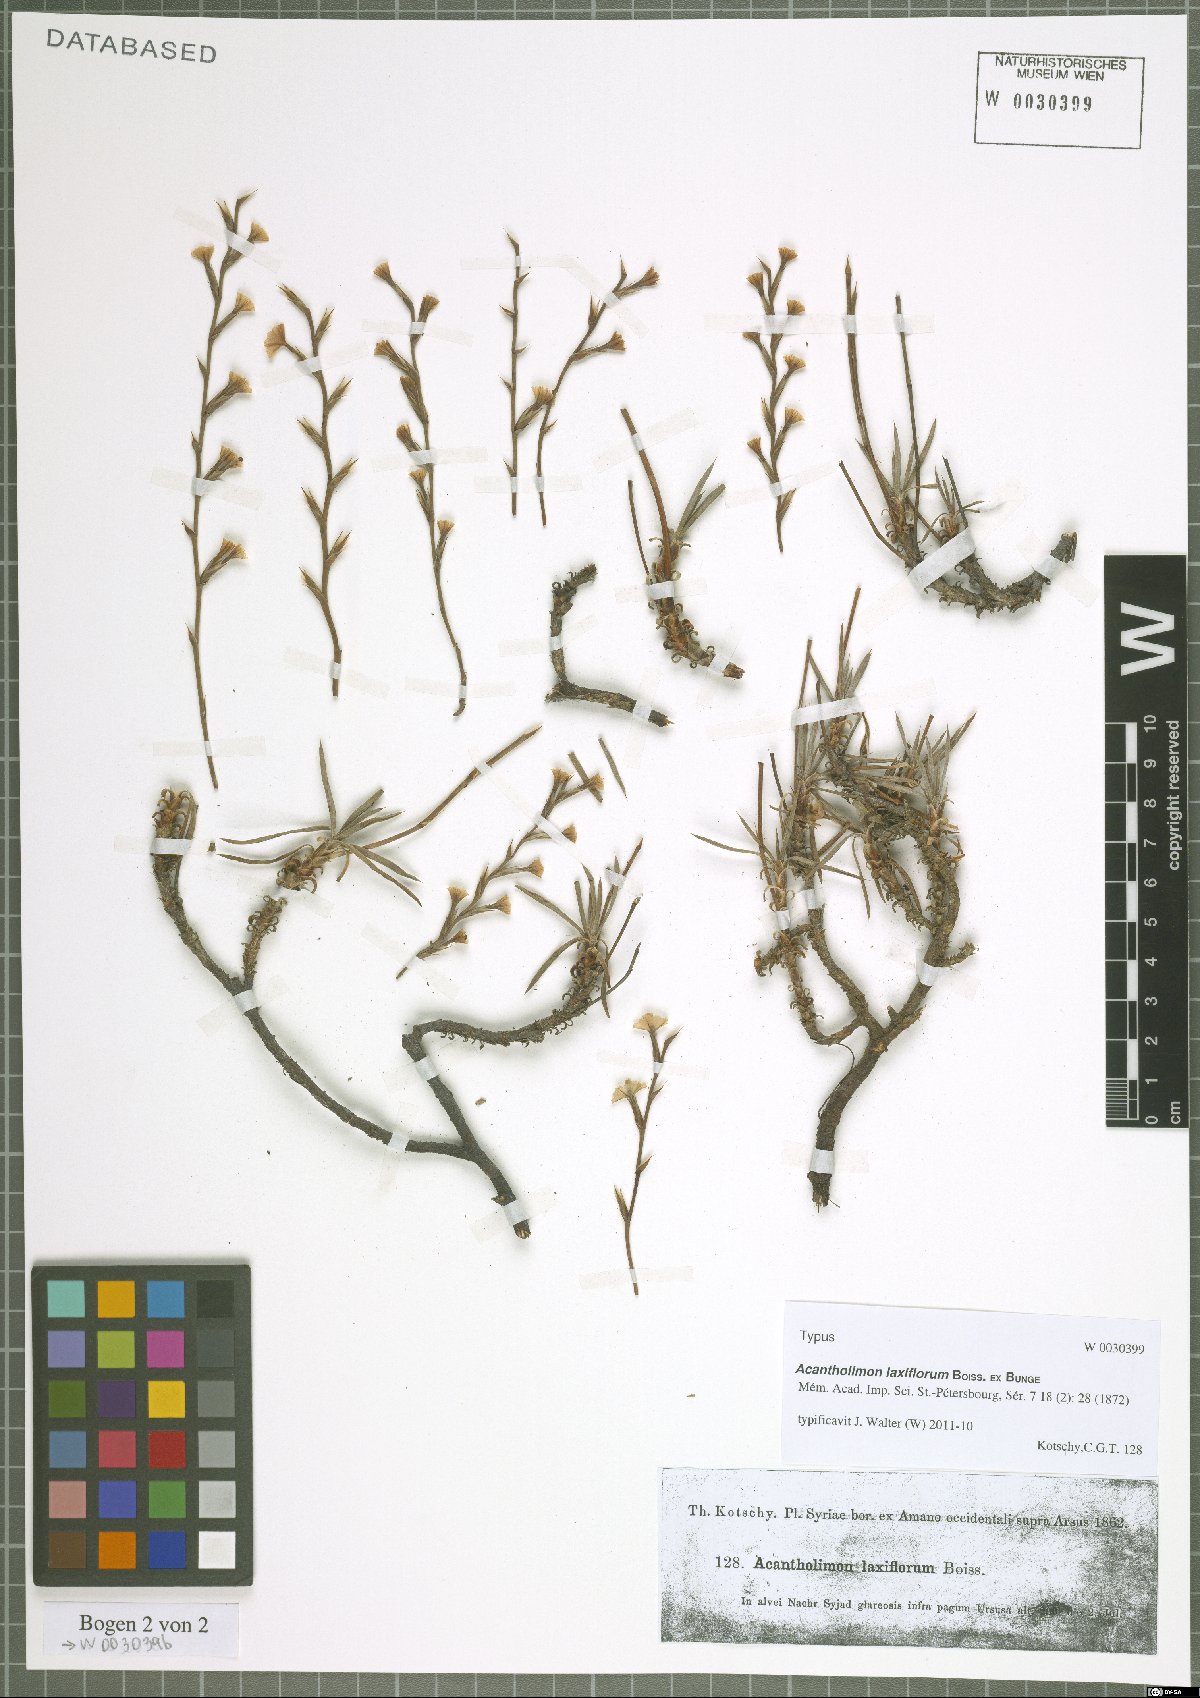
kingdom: Plantae
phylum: Tracheophyta
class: Magnoliopsida
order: Caryophyllales
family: Plumbaginaceae
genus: Acantholimon
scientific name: Acantholimon laxiflorum
